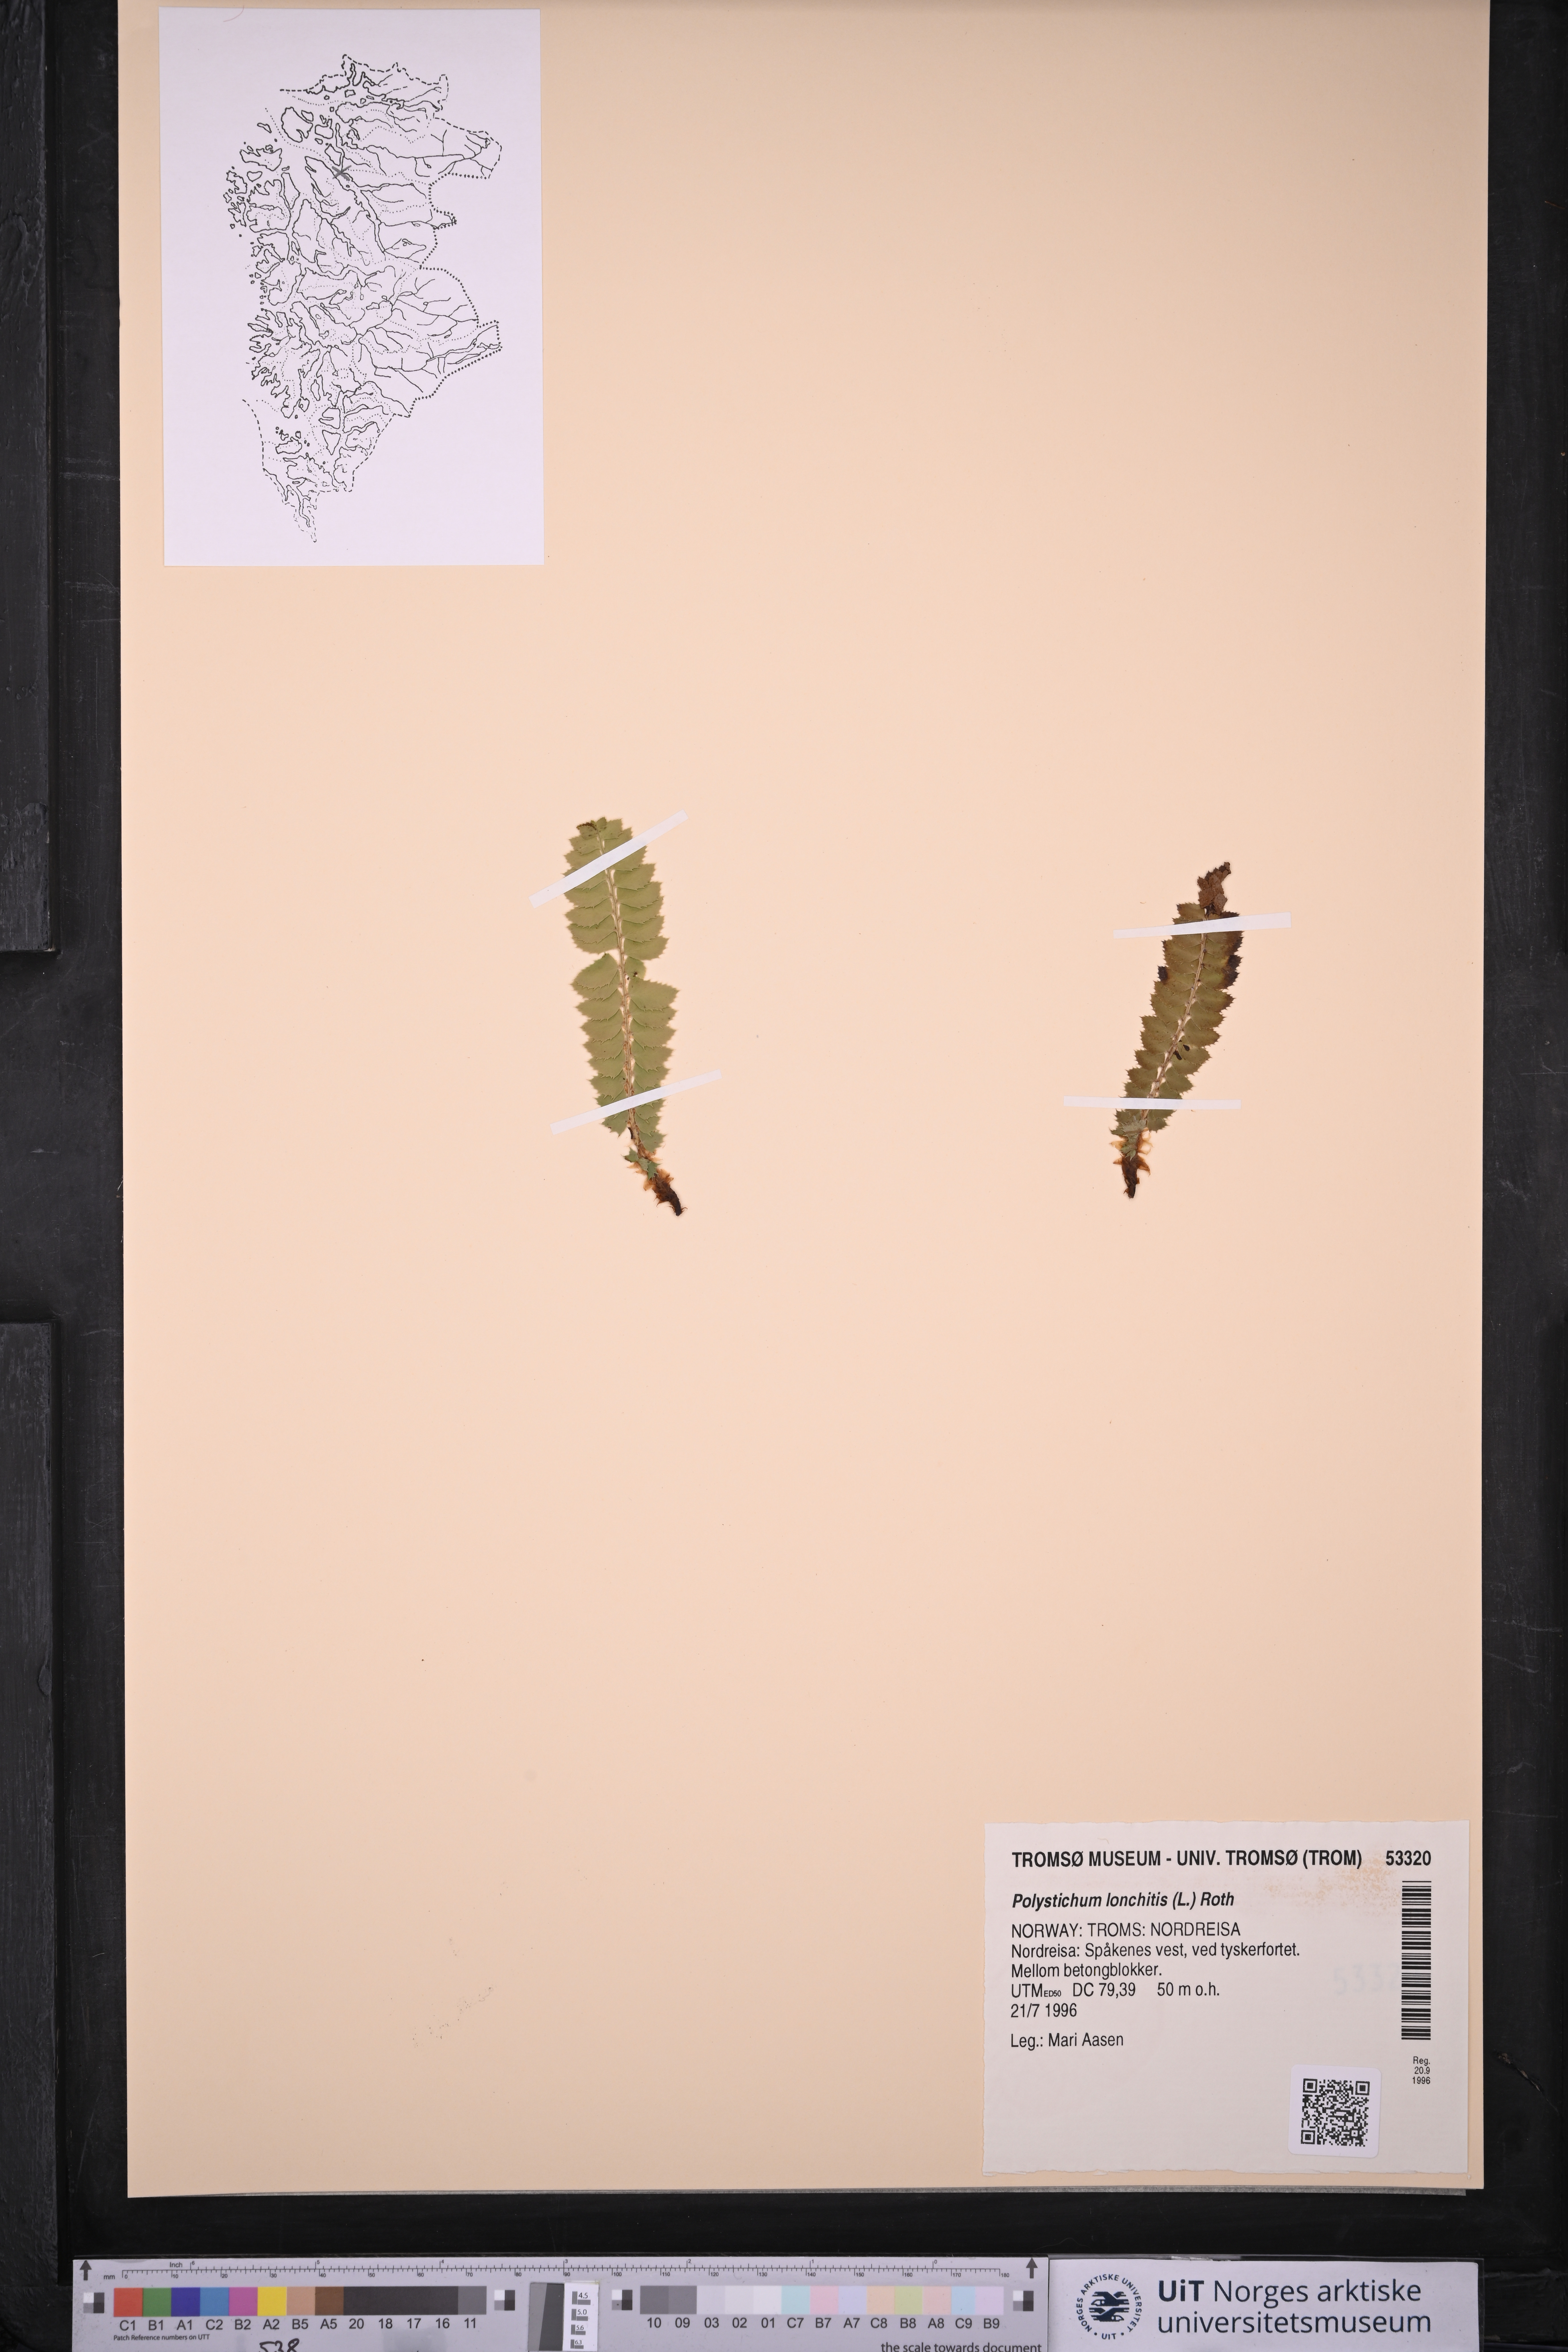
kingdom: Plantae
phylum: Tracheophyta
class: Polypodiopsida
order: Polypodiales
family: Dryopteridaceae
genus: Polystichum
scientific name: Polystichum lonchitis
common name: Holly fern
